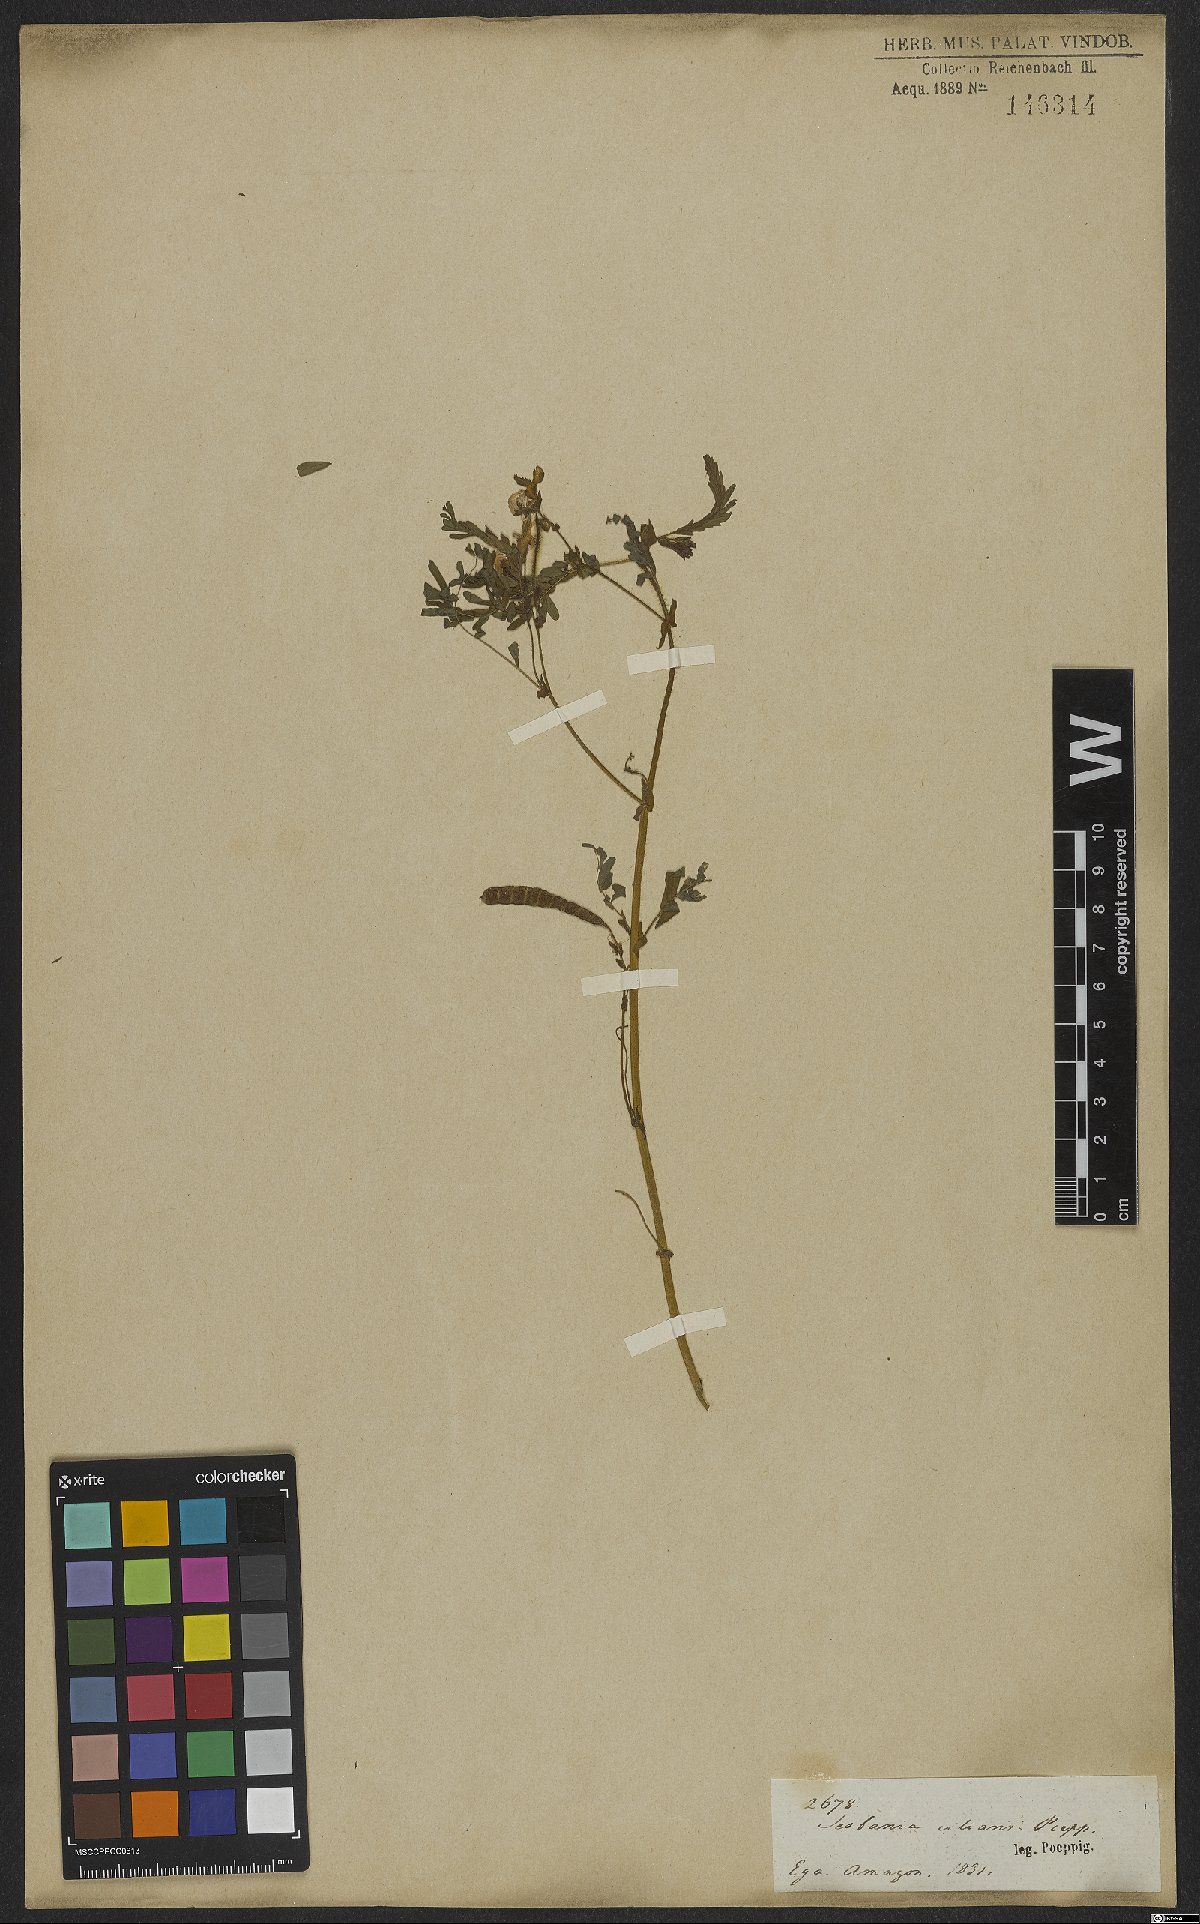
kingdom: Plantae
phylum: Tracheophyta
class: Magnoliopsida
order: Fabales
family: Fabaceae
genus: Aeschynomene
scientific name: Aeschynomene
